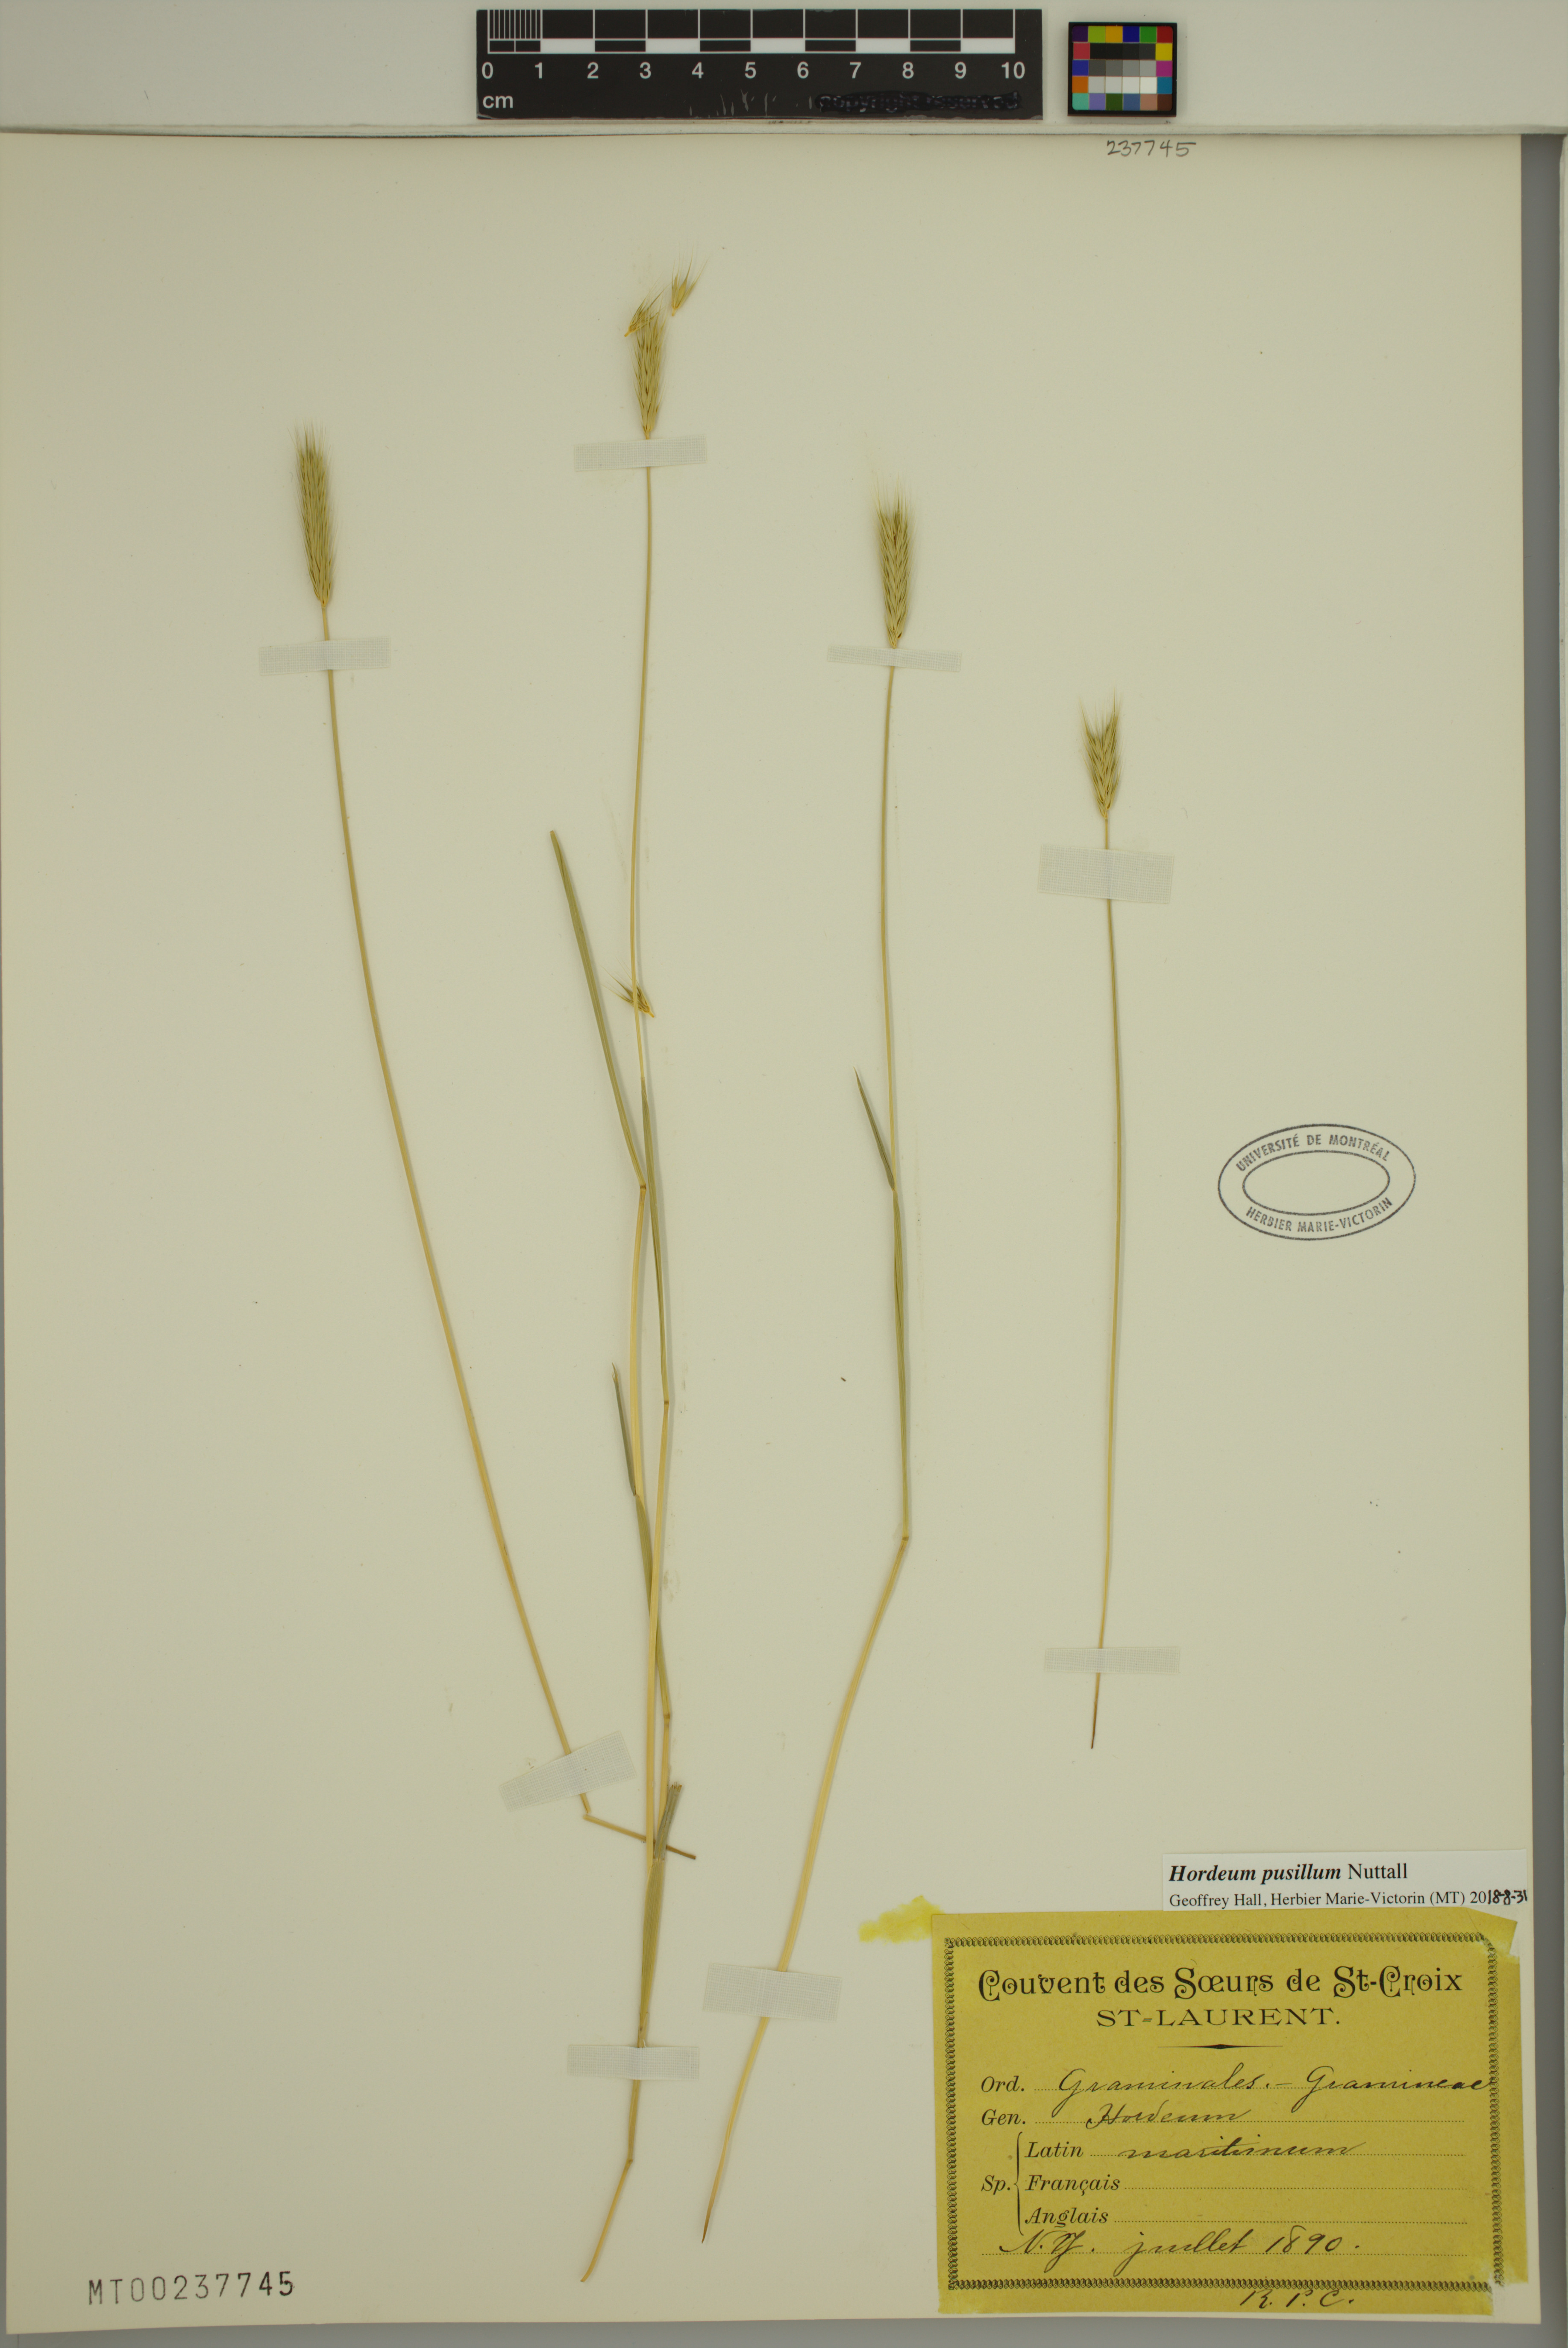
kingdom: Plantae
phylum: Tracheophyta
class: Liliopsida
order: Poales
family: Poaceae
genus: Hordeum
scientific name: Hordeum pusillum
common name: Little barley
